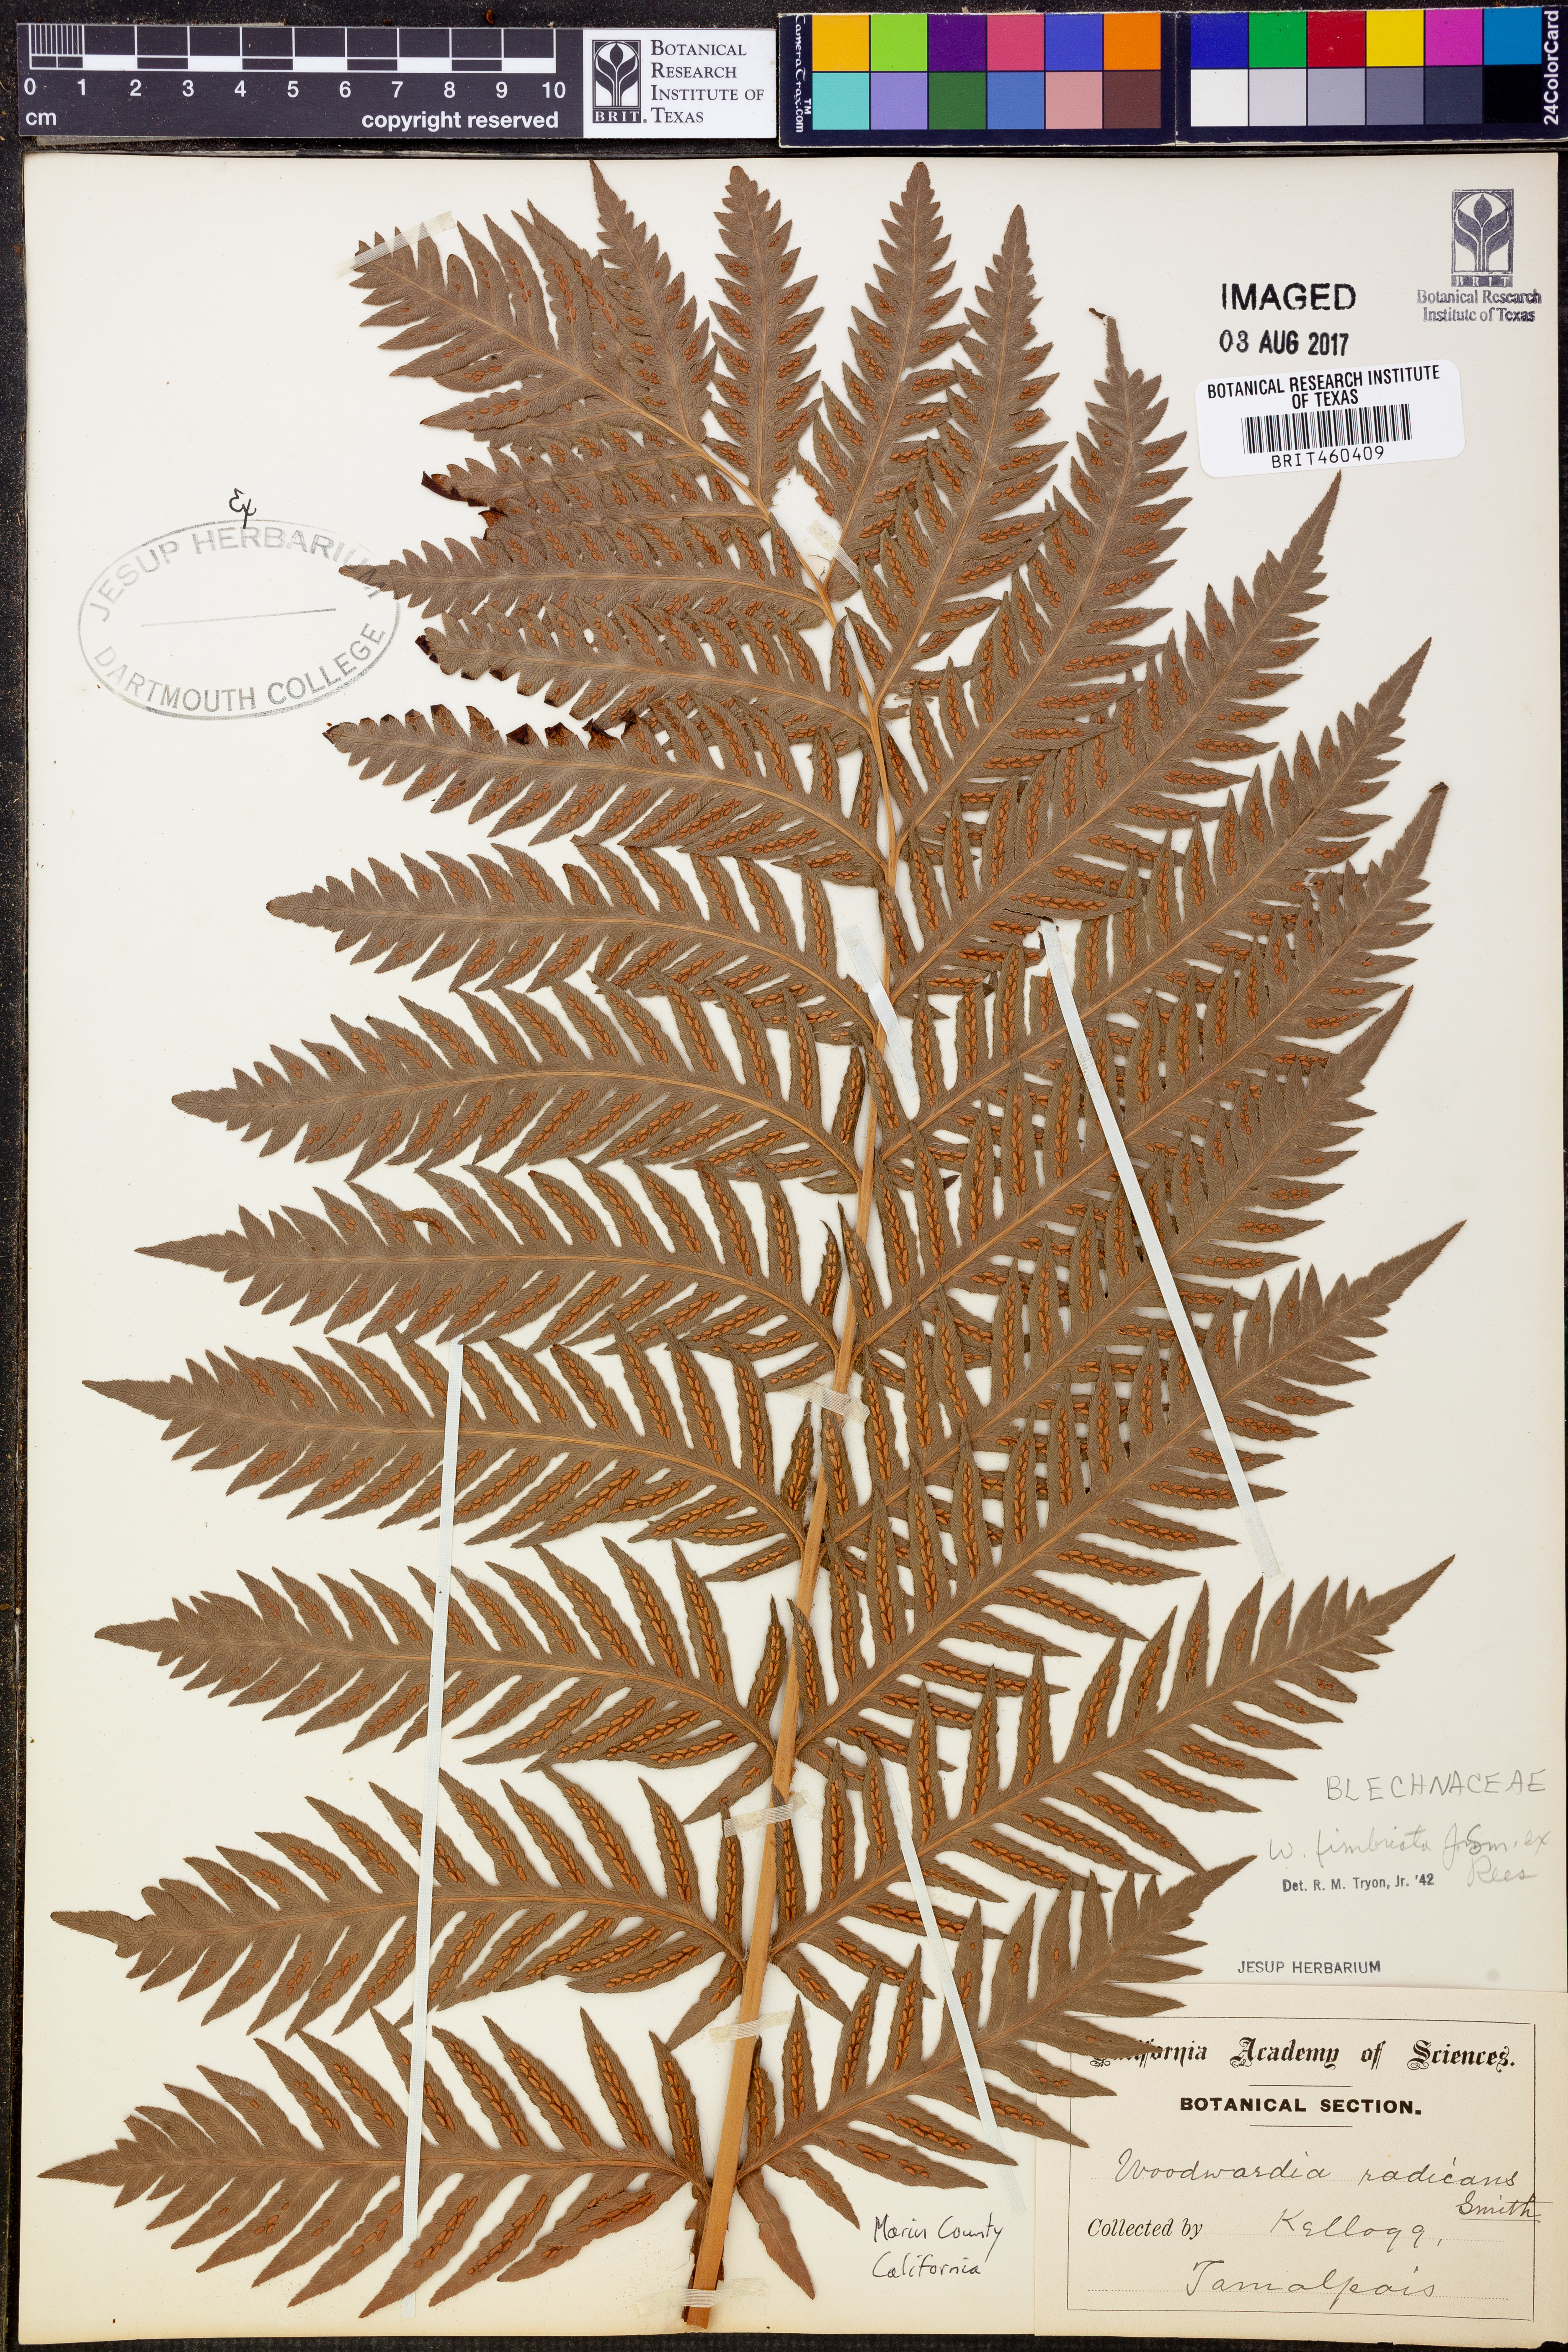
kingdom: Plantae
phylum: Tracheophyta
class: Polypodiopsida
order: Polypodiales
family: Blechnaceae
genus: Woodwardia
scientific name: Woodwardia radicans
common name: Rooting chainfern
